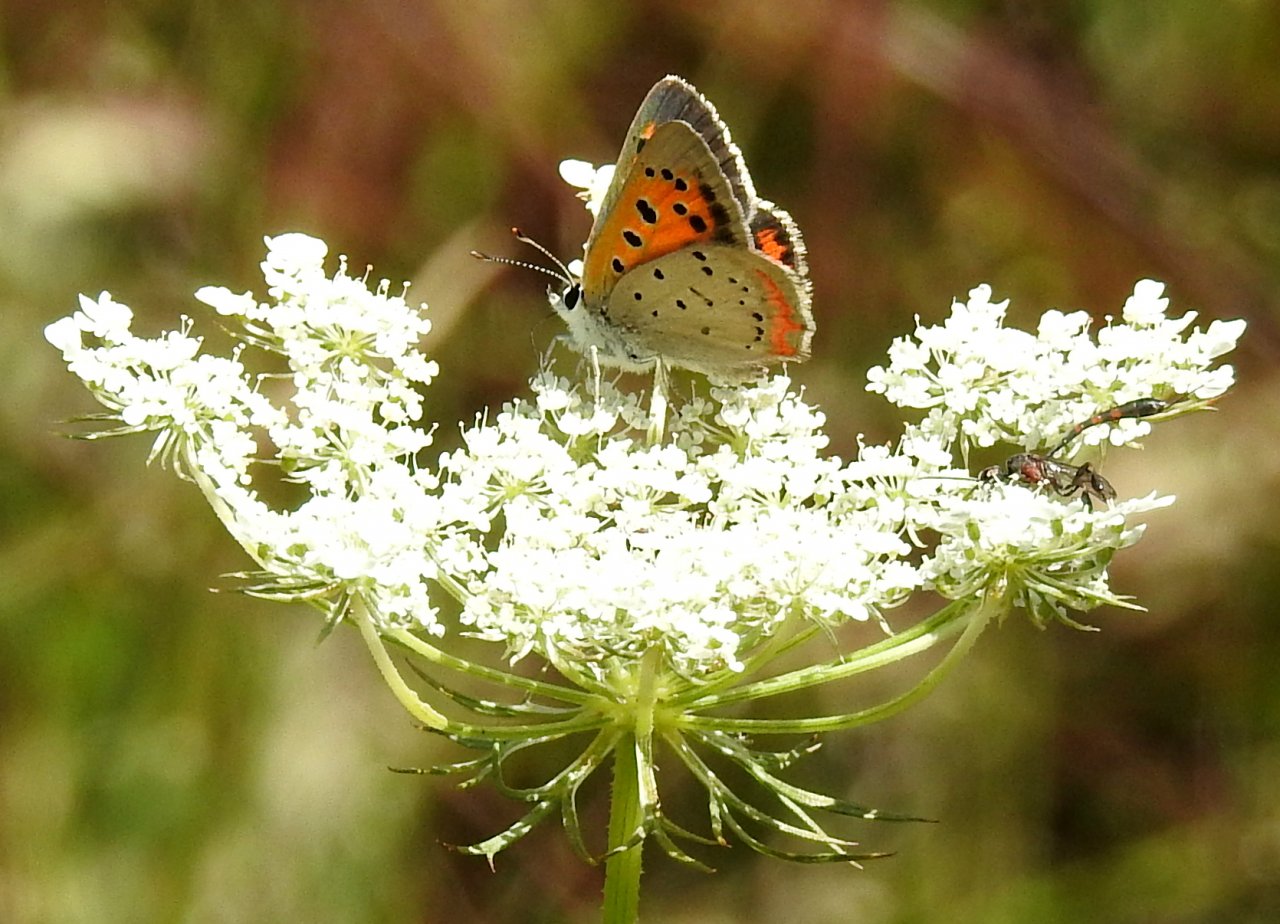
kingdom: Animalia
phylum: Arthropoda
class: Insecta
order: Lepidoptera
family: Lycaenidae
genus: Lycaena
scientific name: Lycaena phlaeas
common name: American Copper
